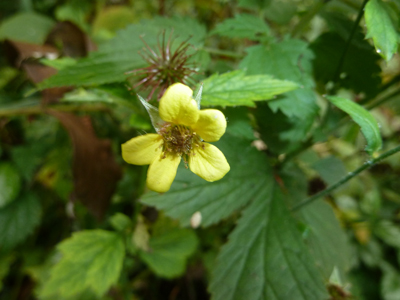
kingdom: Plantae
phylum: Tracheophyta
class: Magnoliopsida
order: Rosales
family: Rosaceae
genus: Geum
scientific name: Geum urbanum
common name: Wood avens
